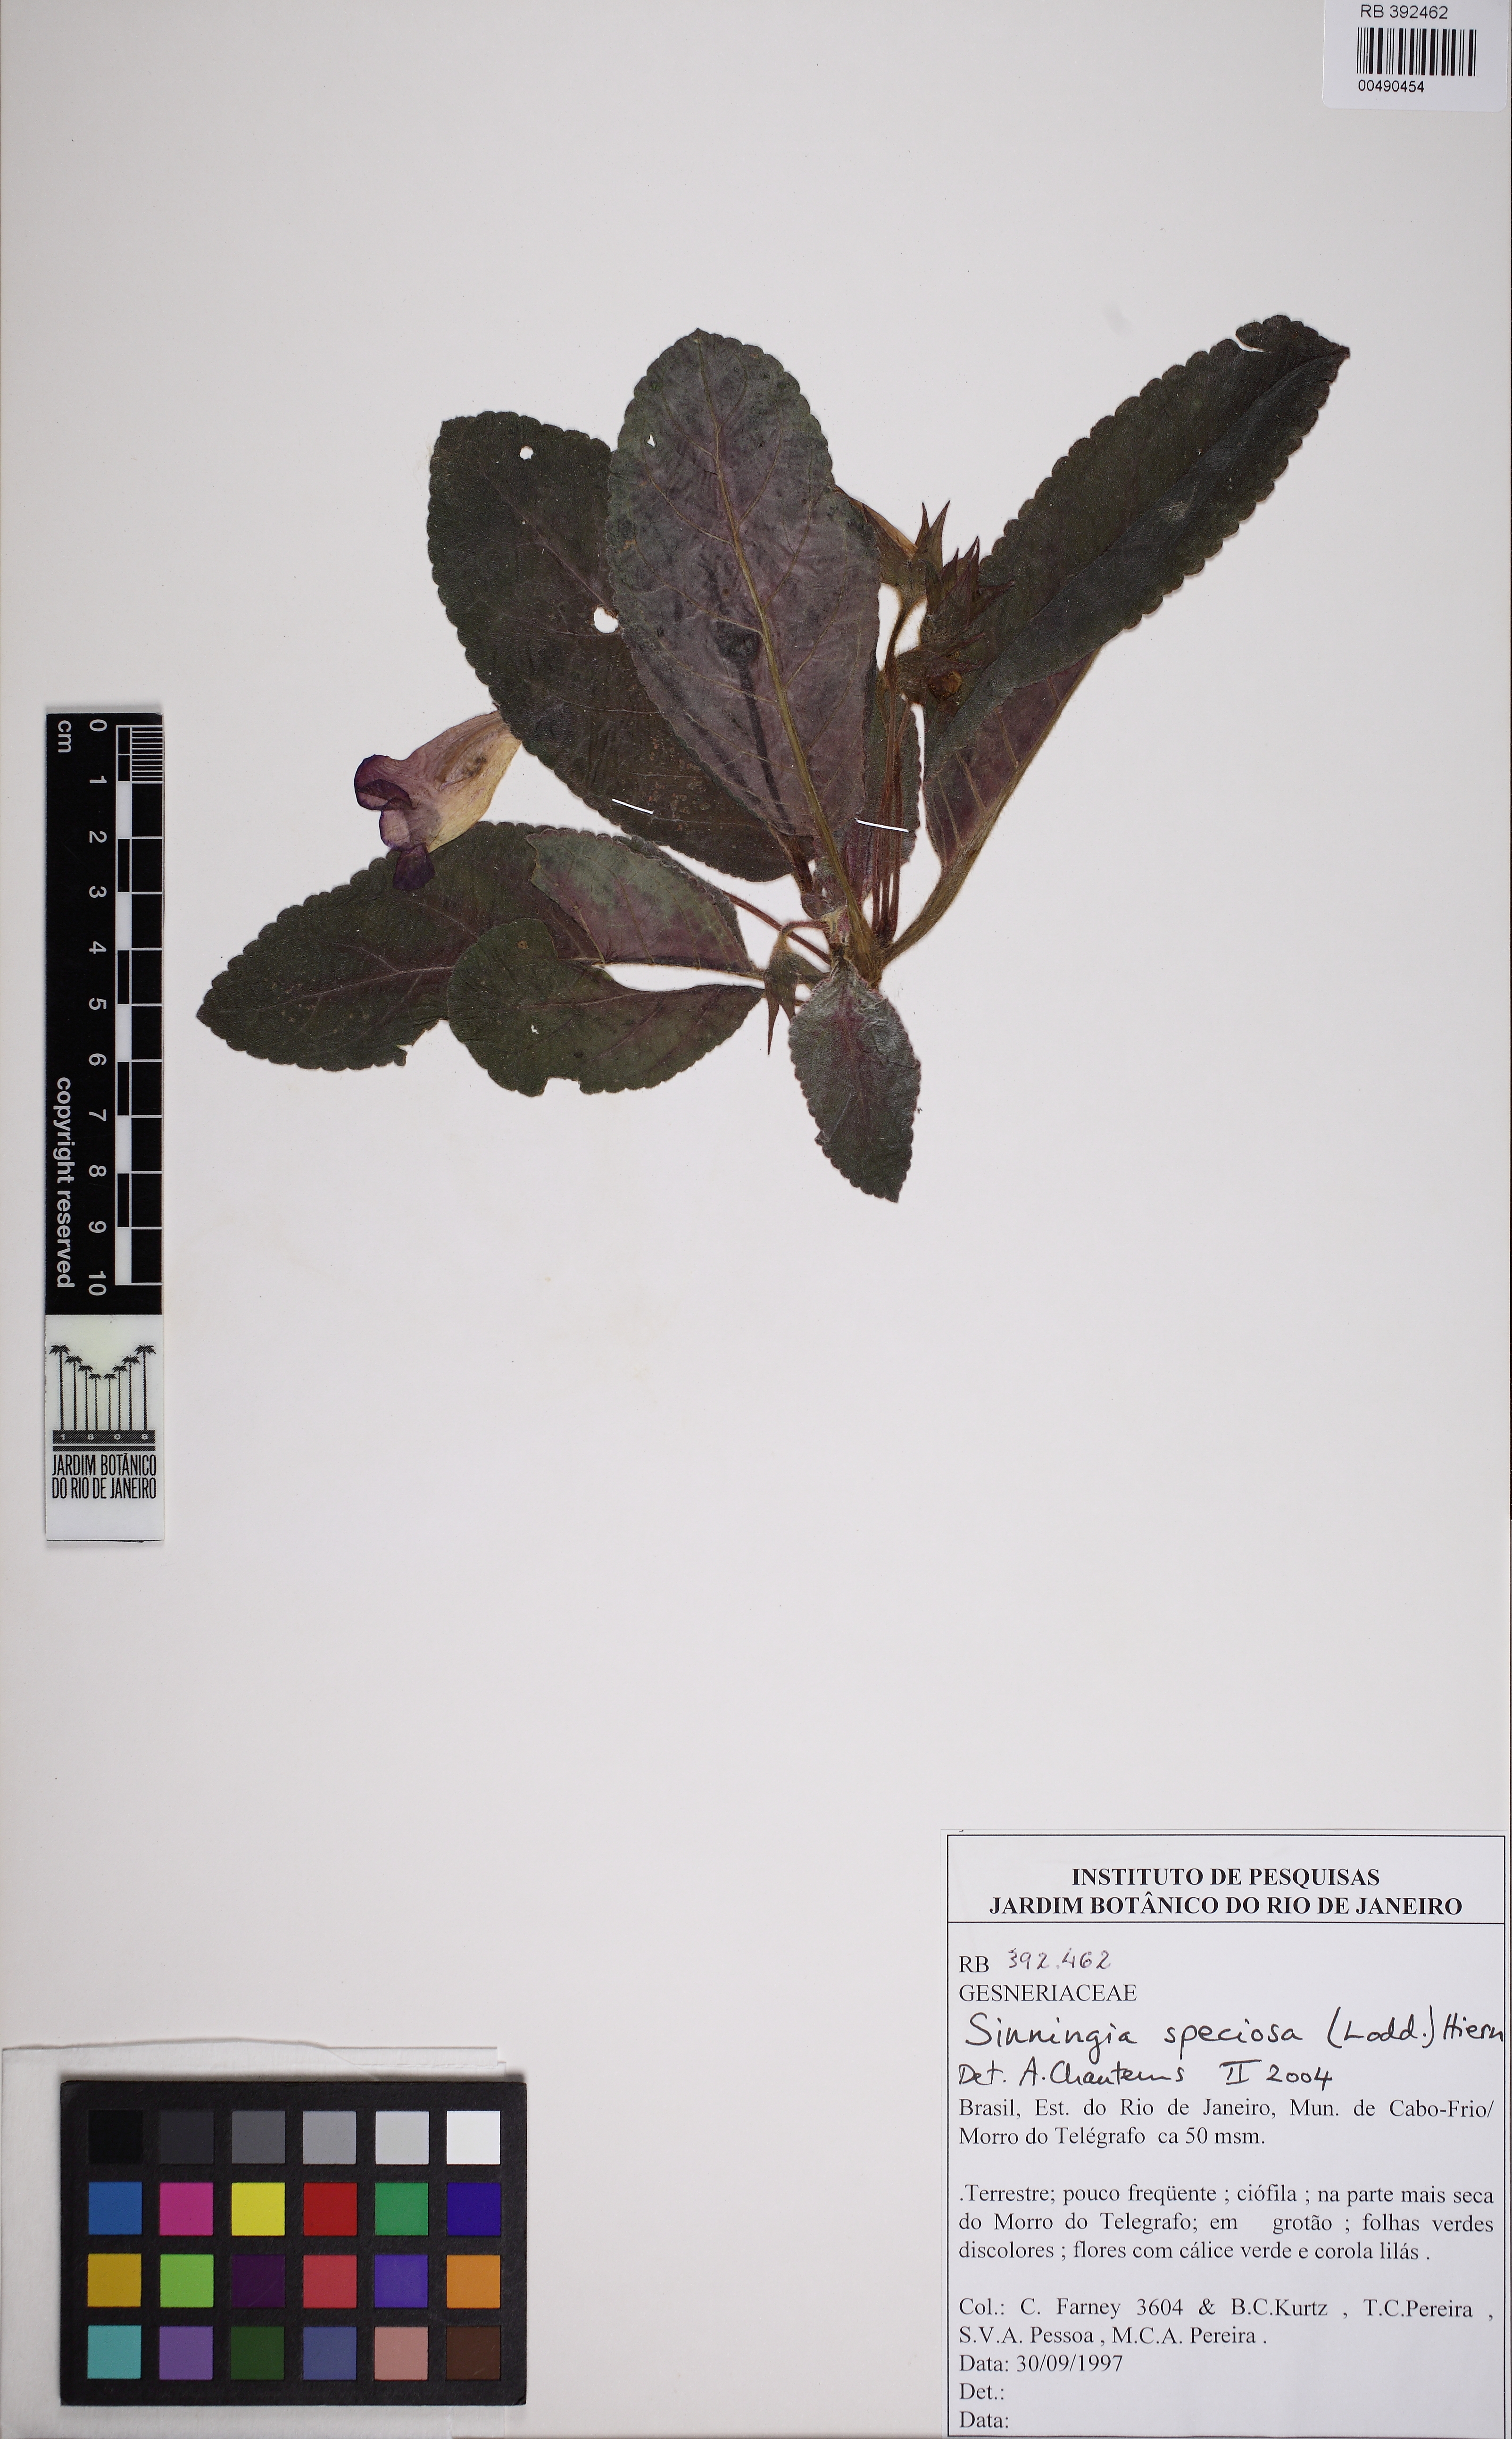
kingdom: Plantae
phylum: Tracheophyta
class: Magnoliopsida
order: Lamiales
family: Gesneriaceae
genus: Sinningia
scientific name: Sinningia speciosa
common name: Brazilian gloxinia
